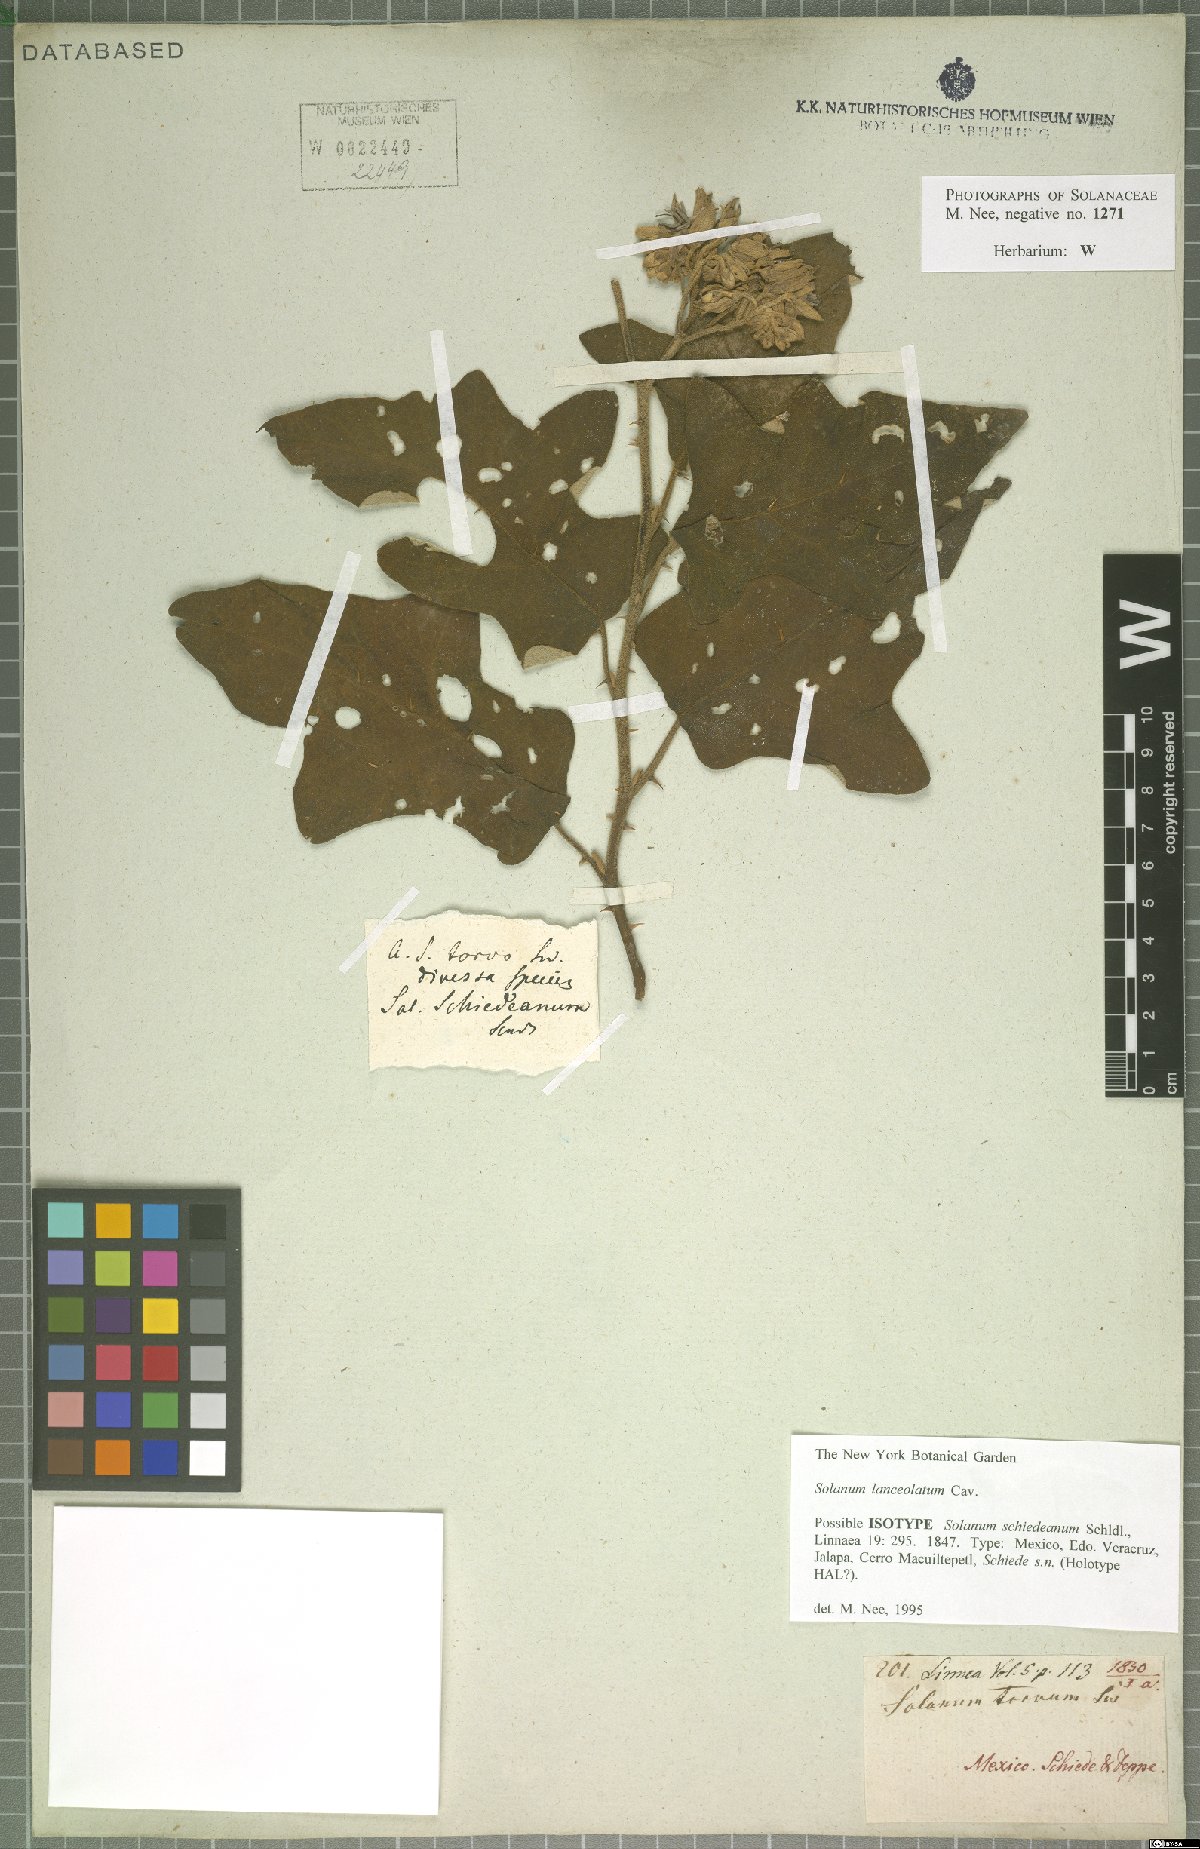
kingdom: Plantae
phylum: Tracheophyta
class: Magnoliopsida
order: Solanales
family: Solanaceae
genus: Solanum
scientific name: Solanum lanceolatum
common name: Orangeberry nightshade
